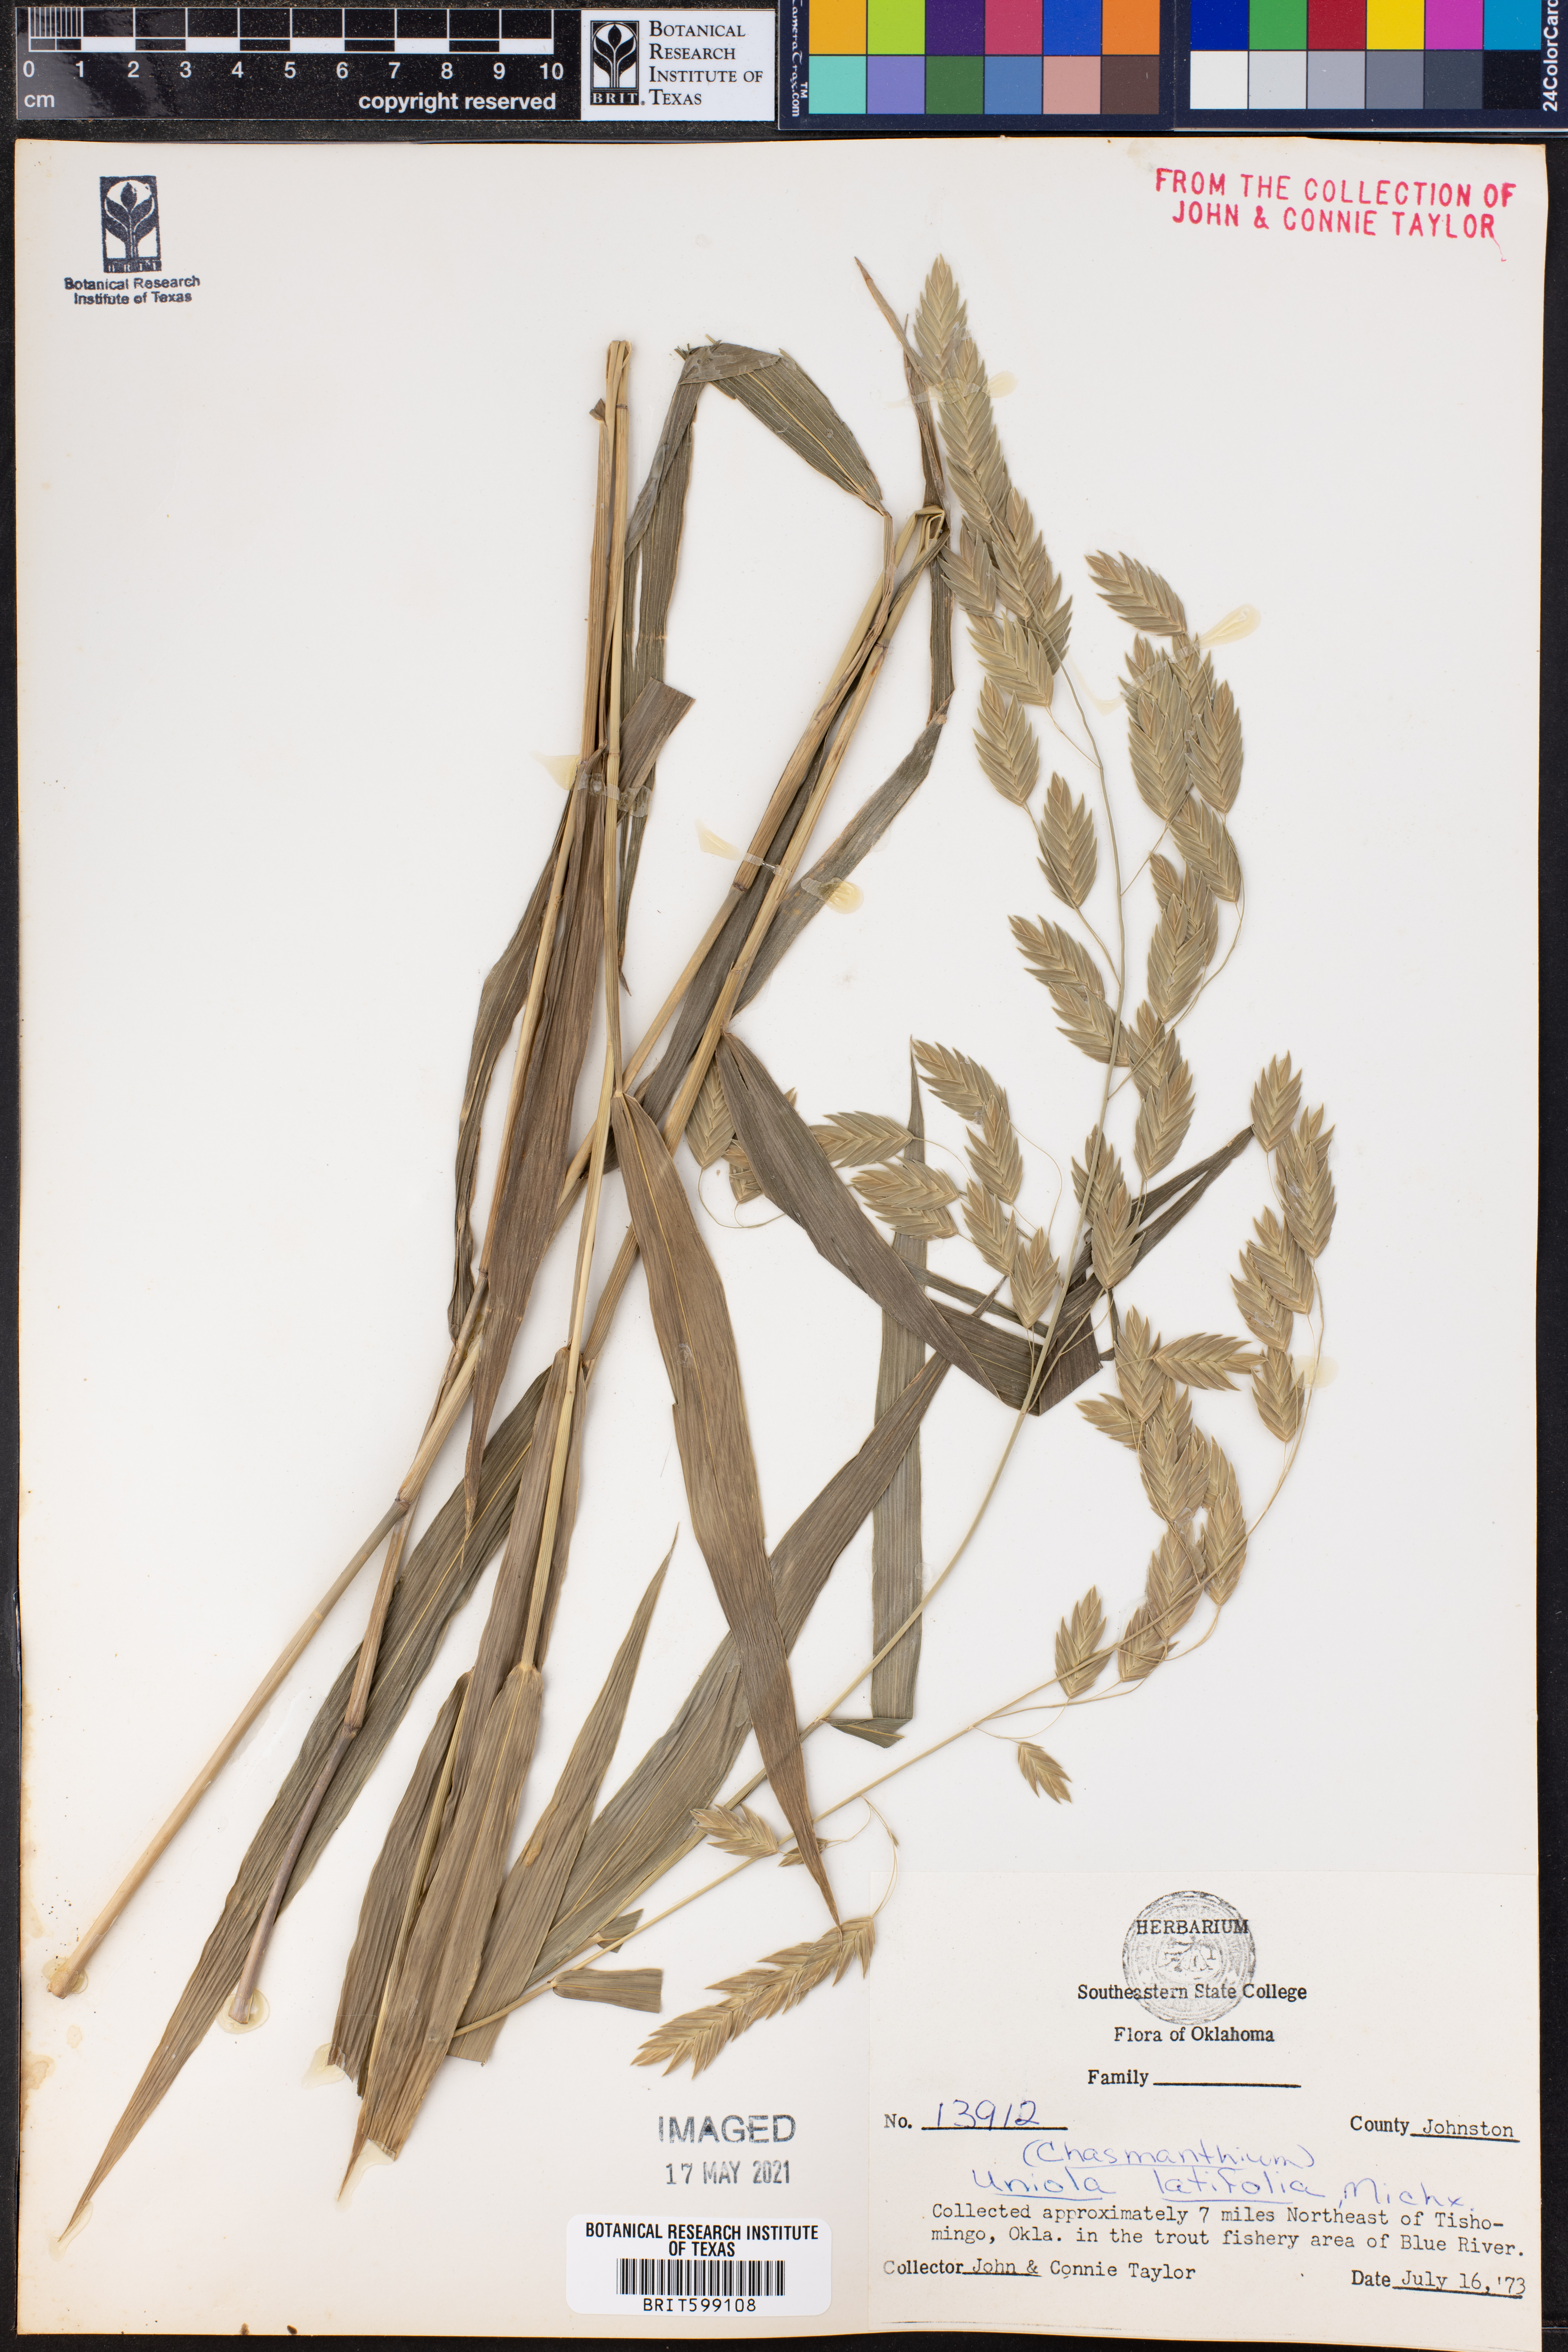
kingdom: Plantae
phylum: Tracheophyta
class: Liliopsida
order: Poales
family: Poaceae
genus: Chasmanthium
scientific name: Chasmanthium latifolium
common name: Broad-leaved chasmanthium
